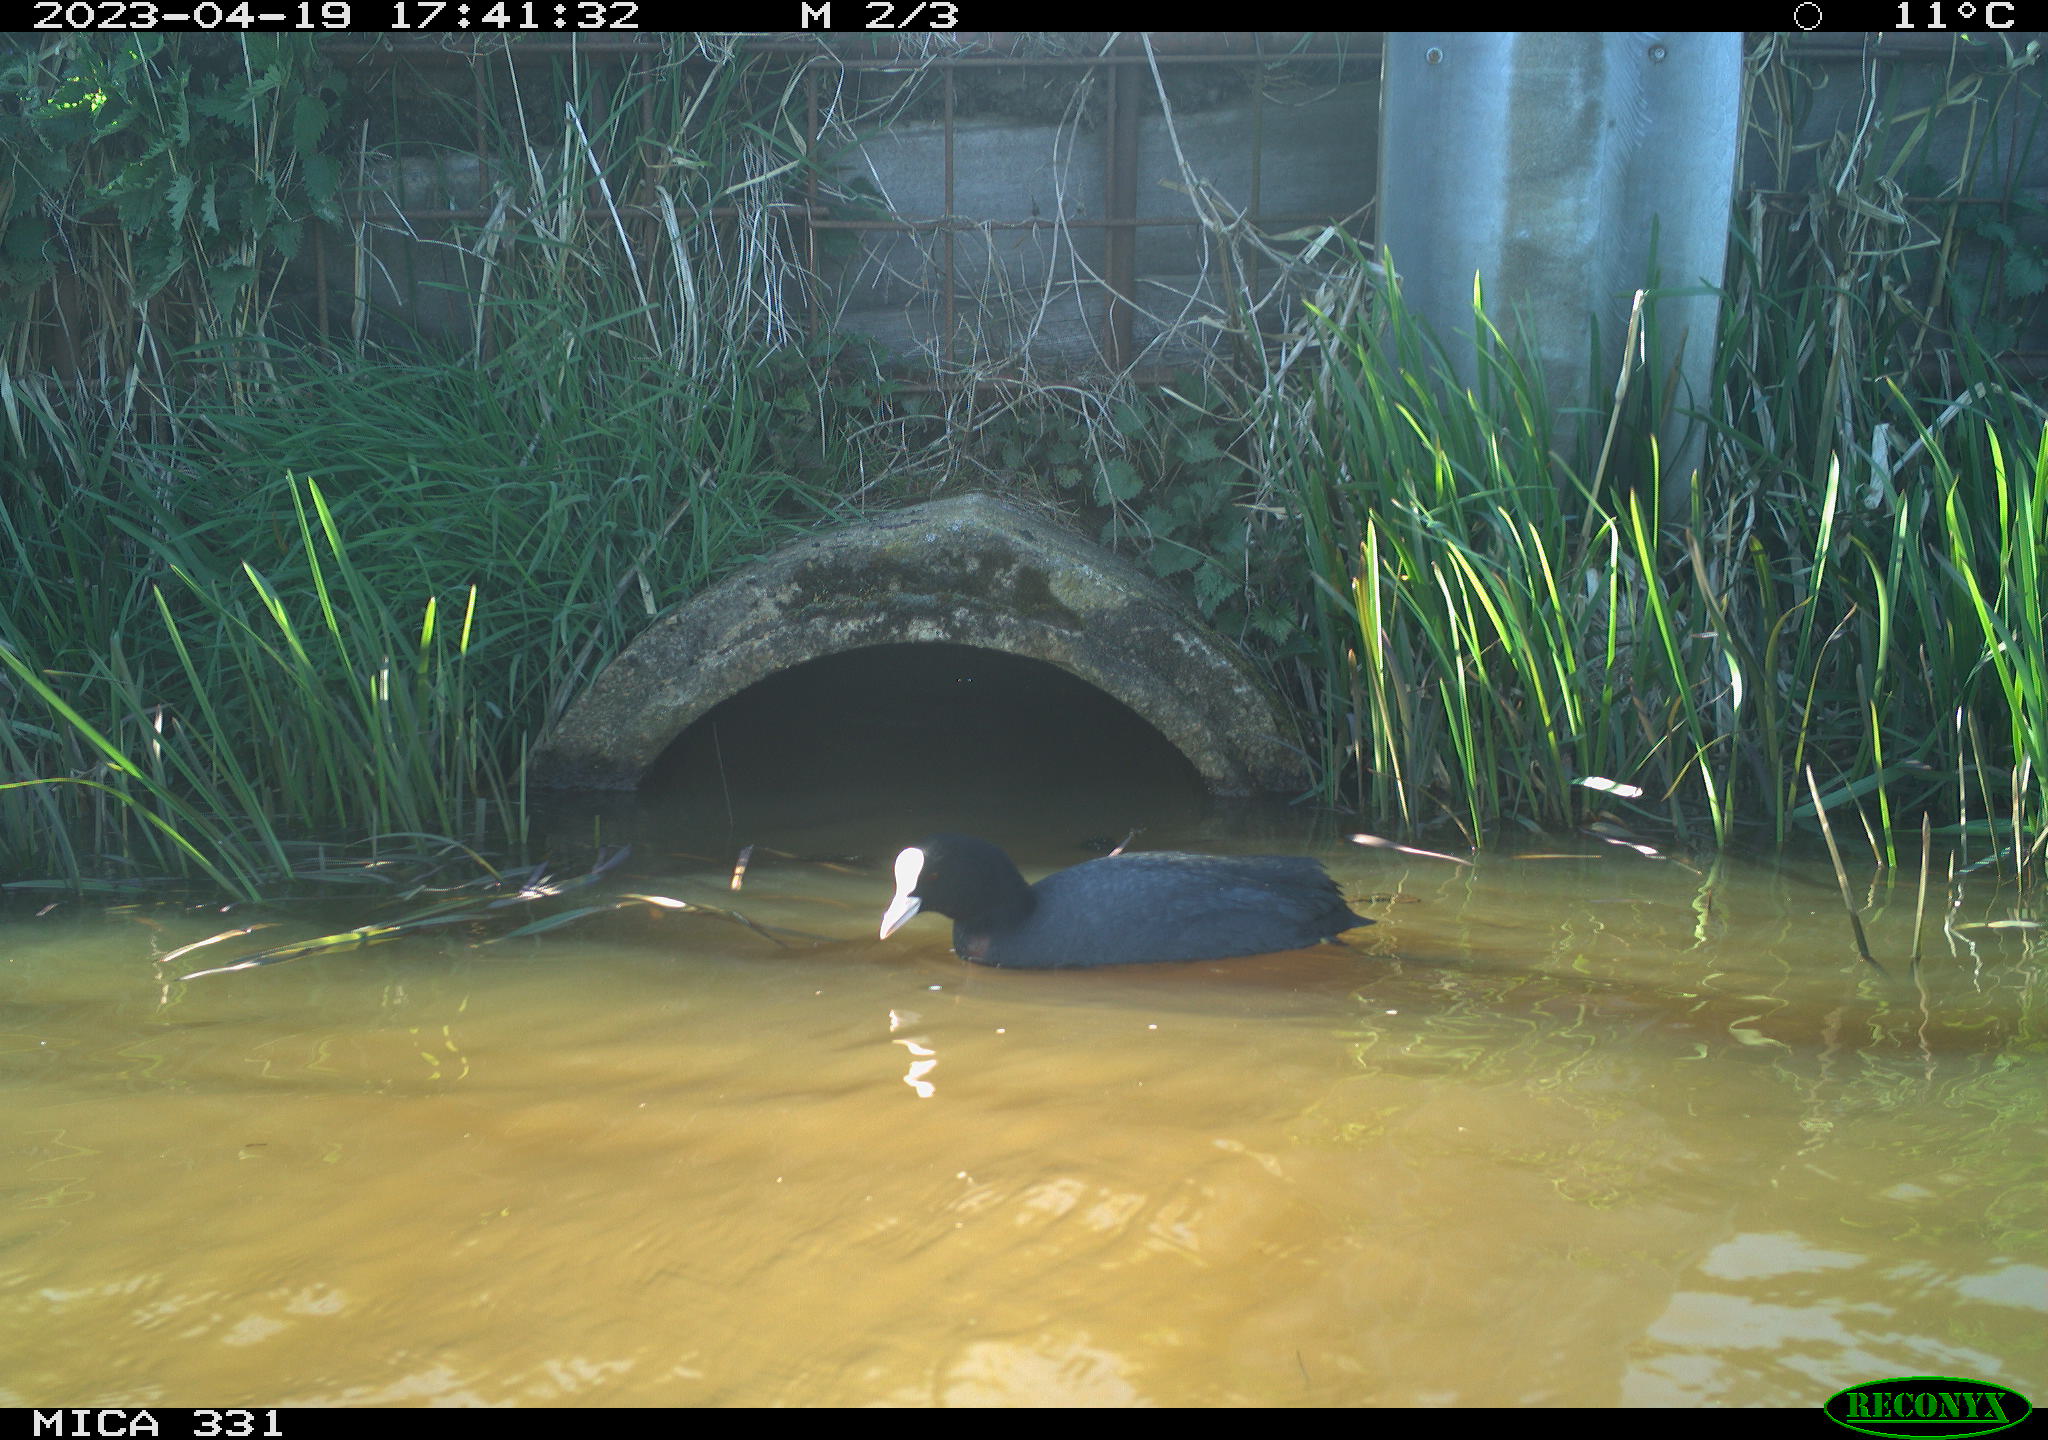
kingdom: Animalia
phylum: Chordata
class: Aves
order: Gruiformes
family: Rallidae
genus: Fulica
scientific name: Fulica atra
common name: Eurasian coot
